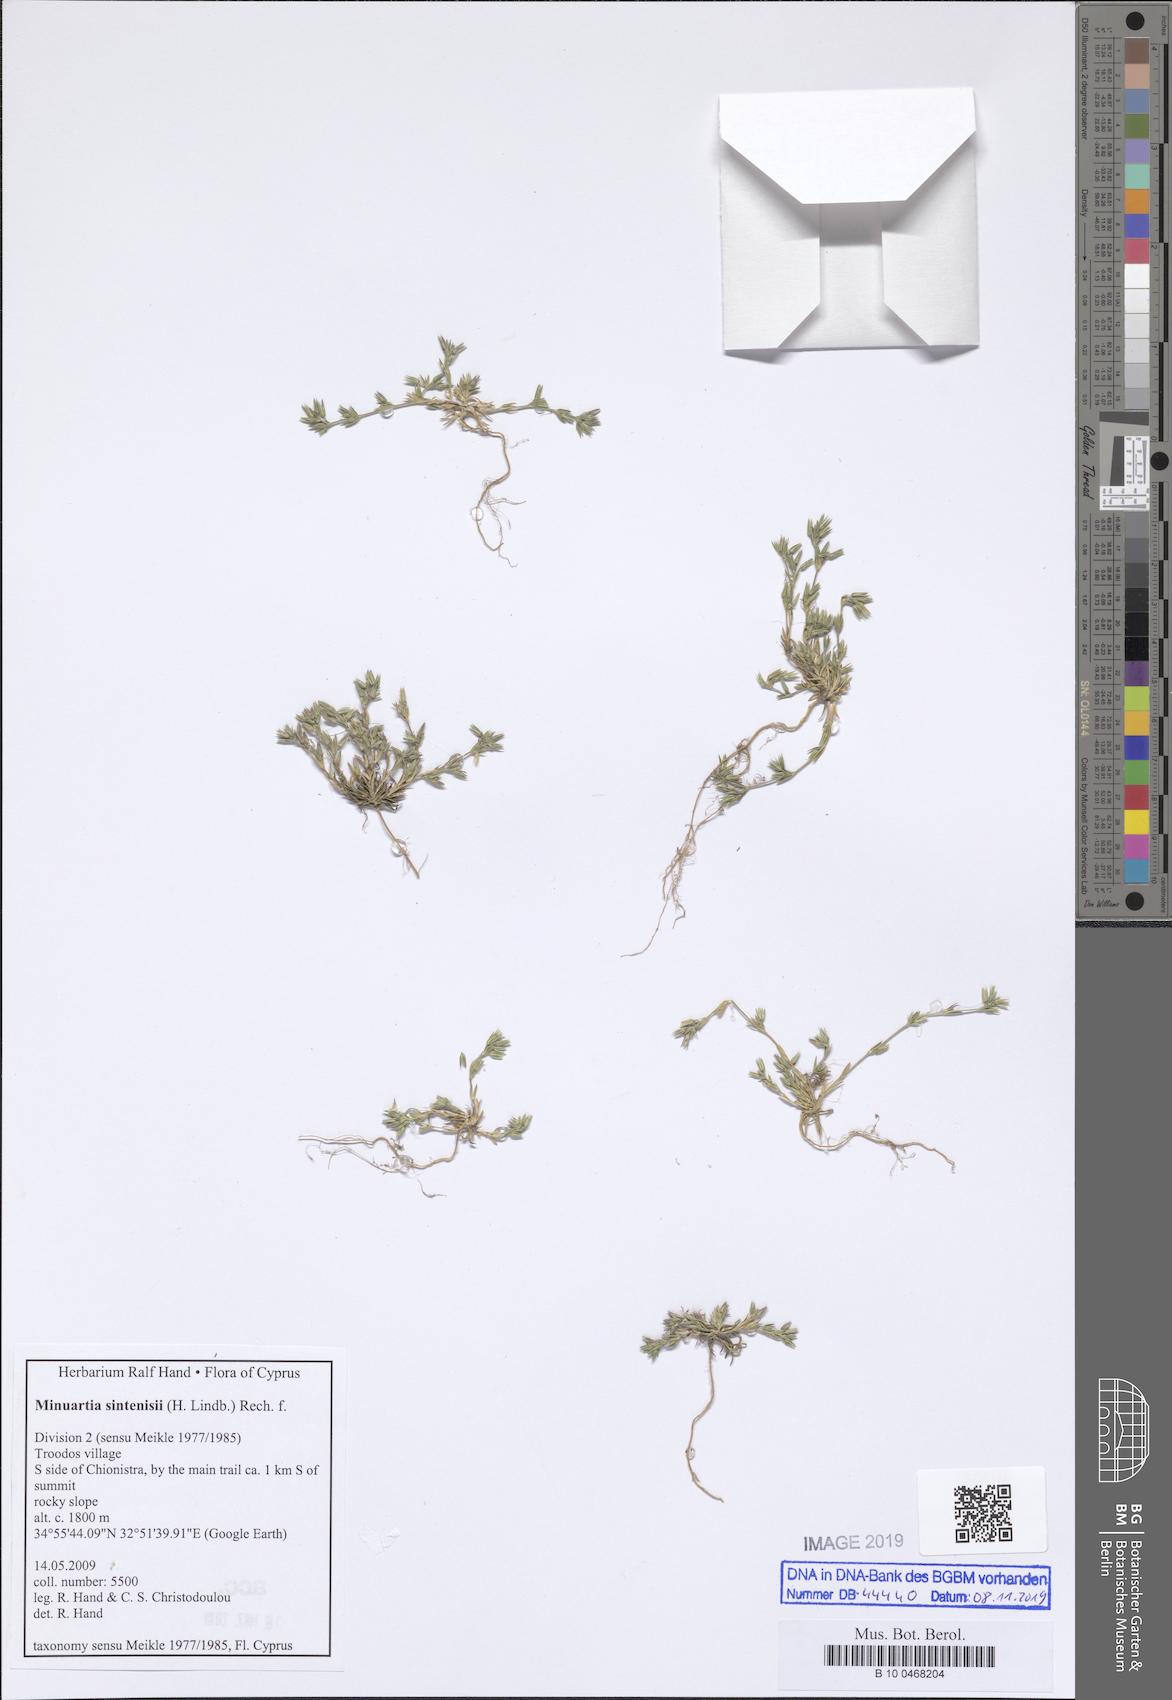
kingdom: Plantae
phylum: Tracheophyta
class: Magnoliopsida
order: Caryophyllales
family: Caryophyllaceae
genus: Minuartia
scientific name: Minuartia sintenisii
